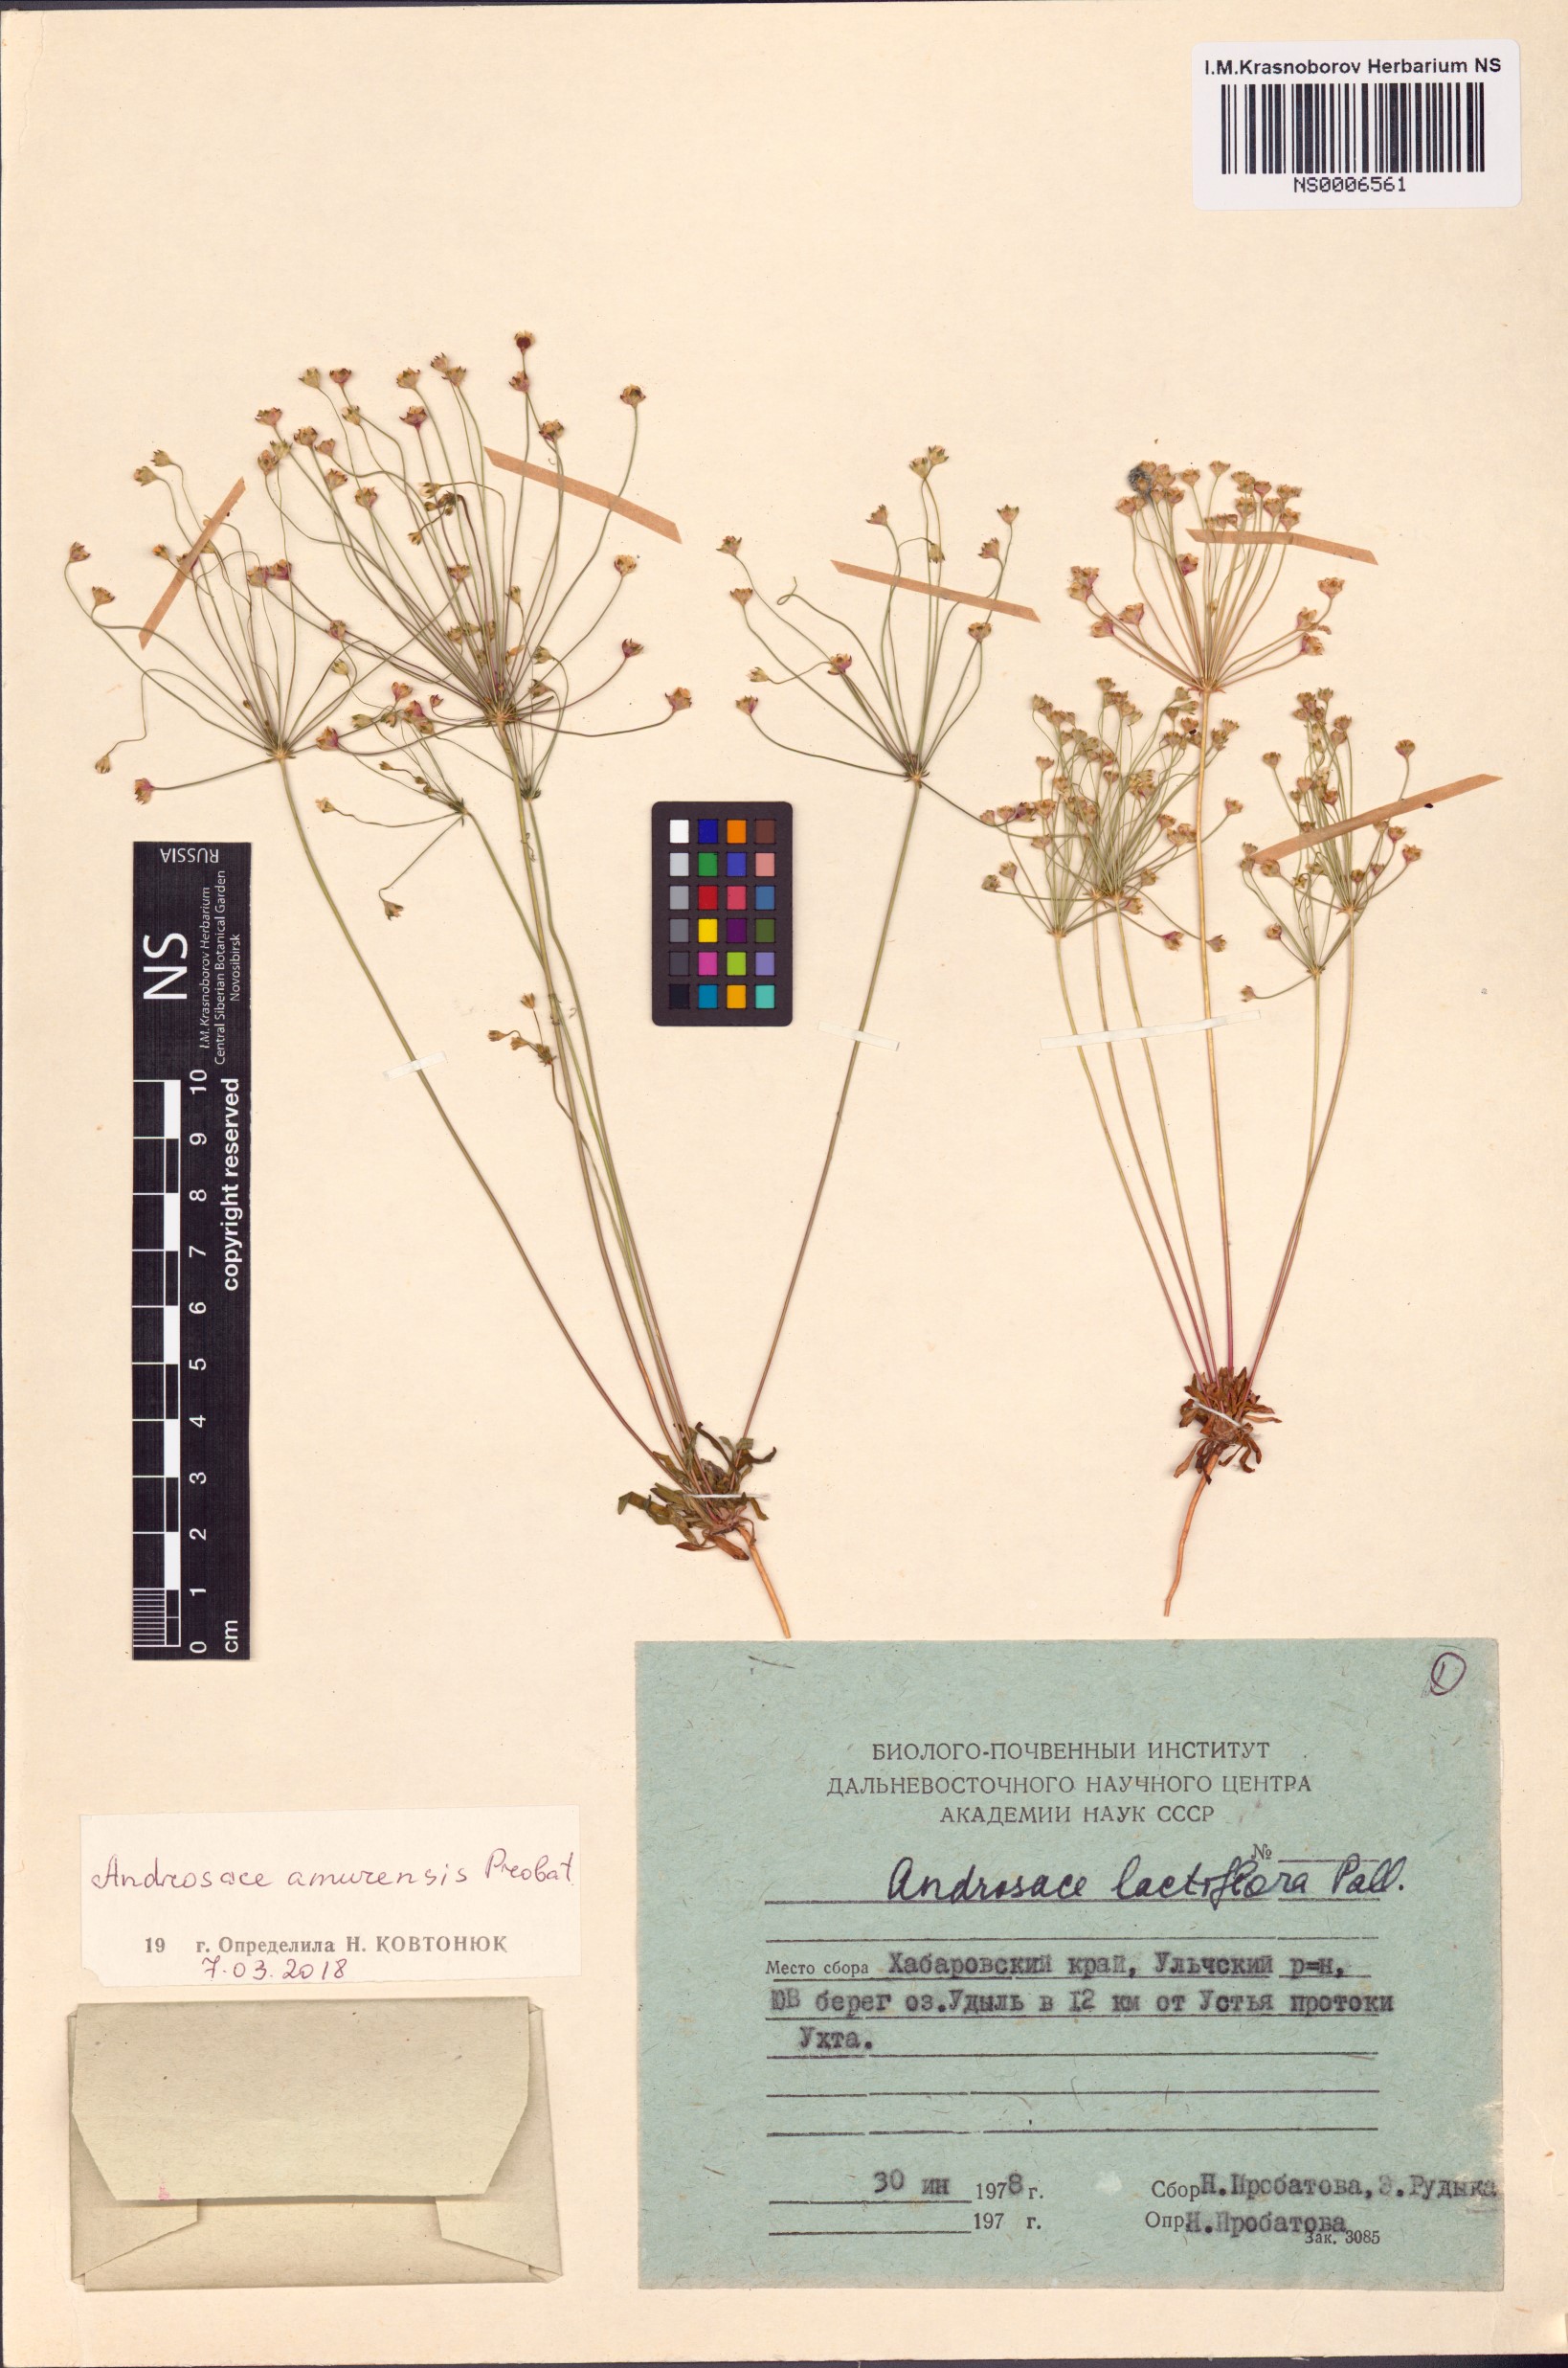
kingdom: Plantae
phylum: Tracheophyta
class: Magnoliopsida
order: Ericales
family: Primulaceae
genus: Androsace
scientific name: Androsace lactiflora
